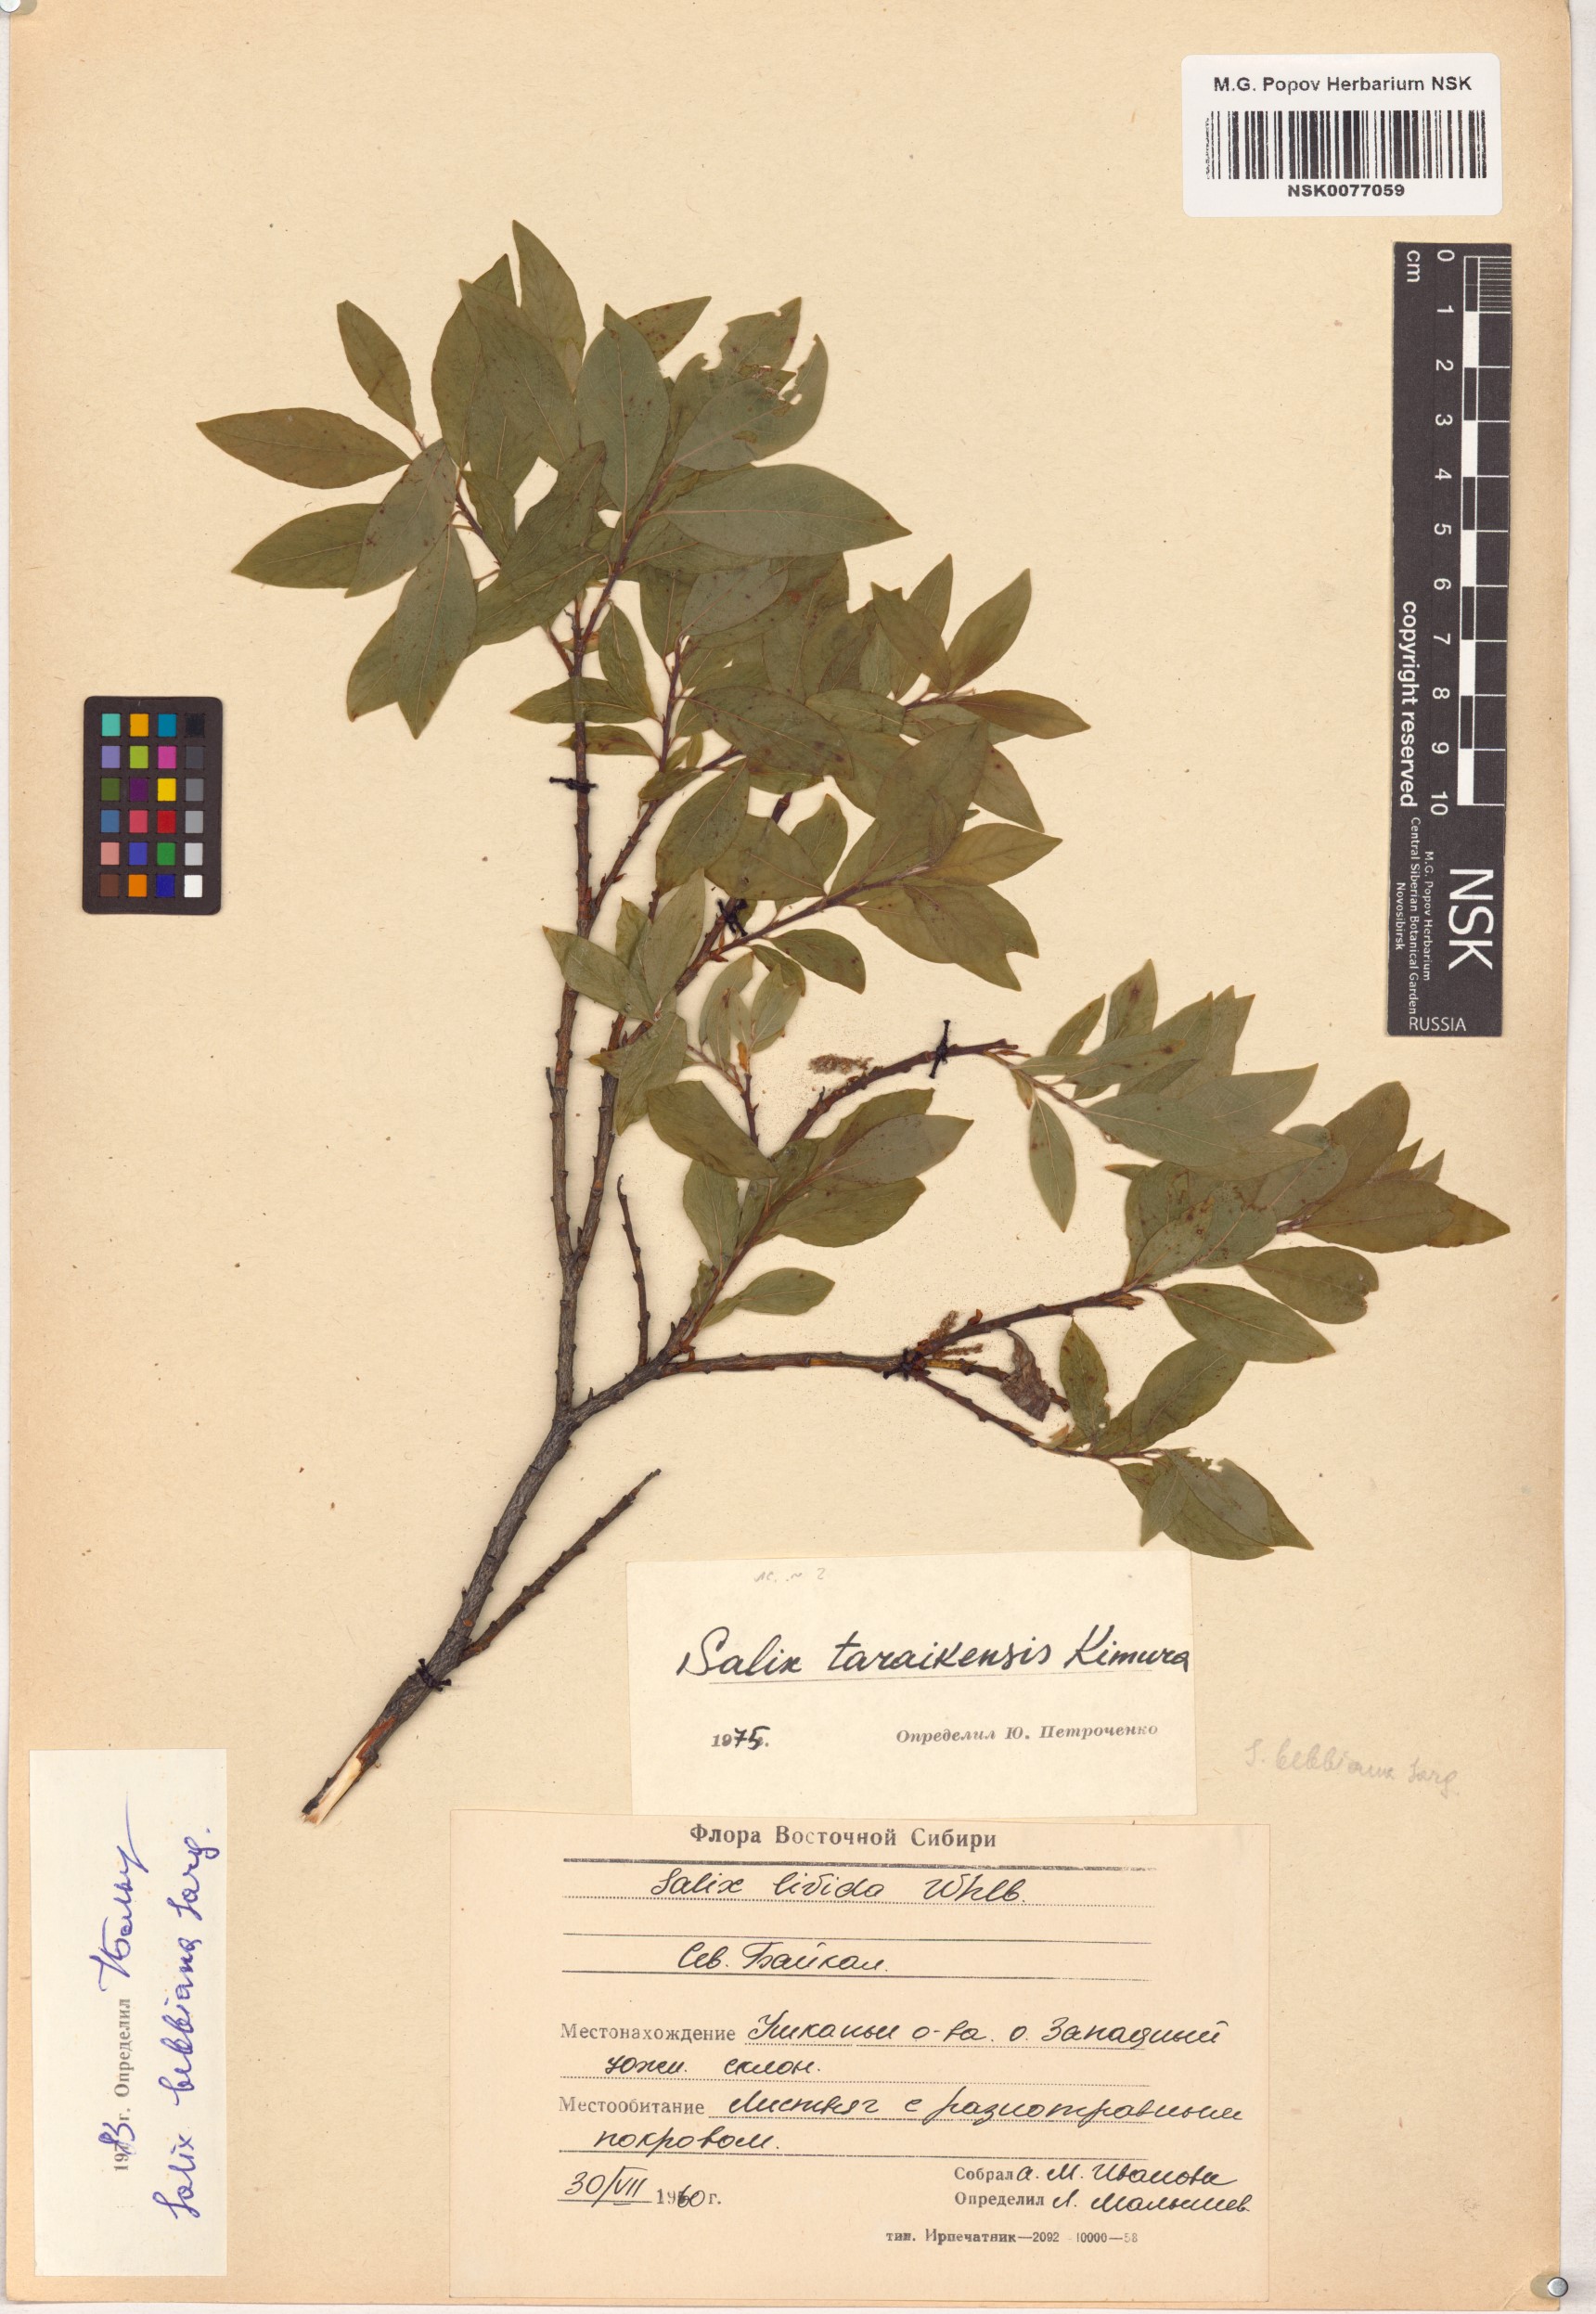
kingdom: Plantae
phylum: Tracheophyta
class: Magnoliopsida
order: Malpighiales
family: Salicaceae
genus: Salix
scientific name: Salix bebbiana
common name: Bebb's willow
